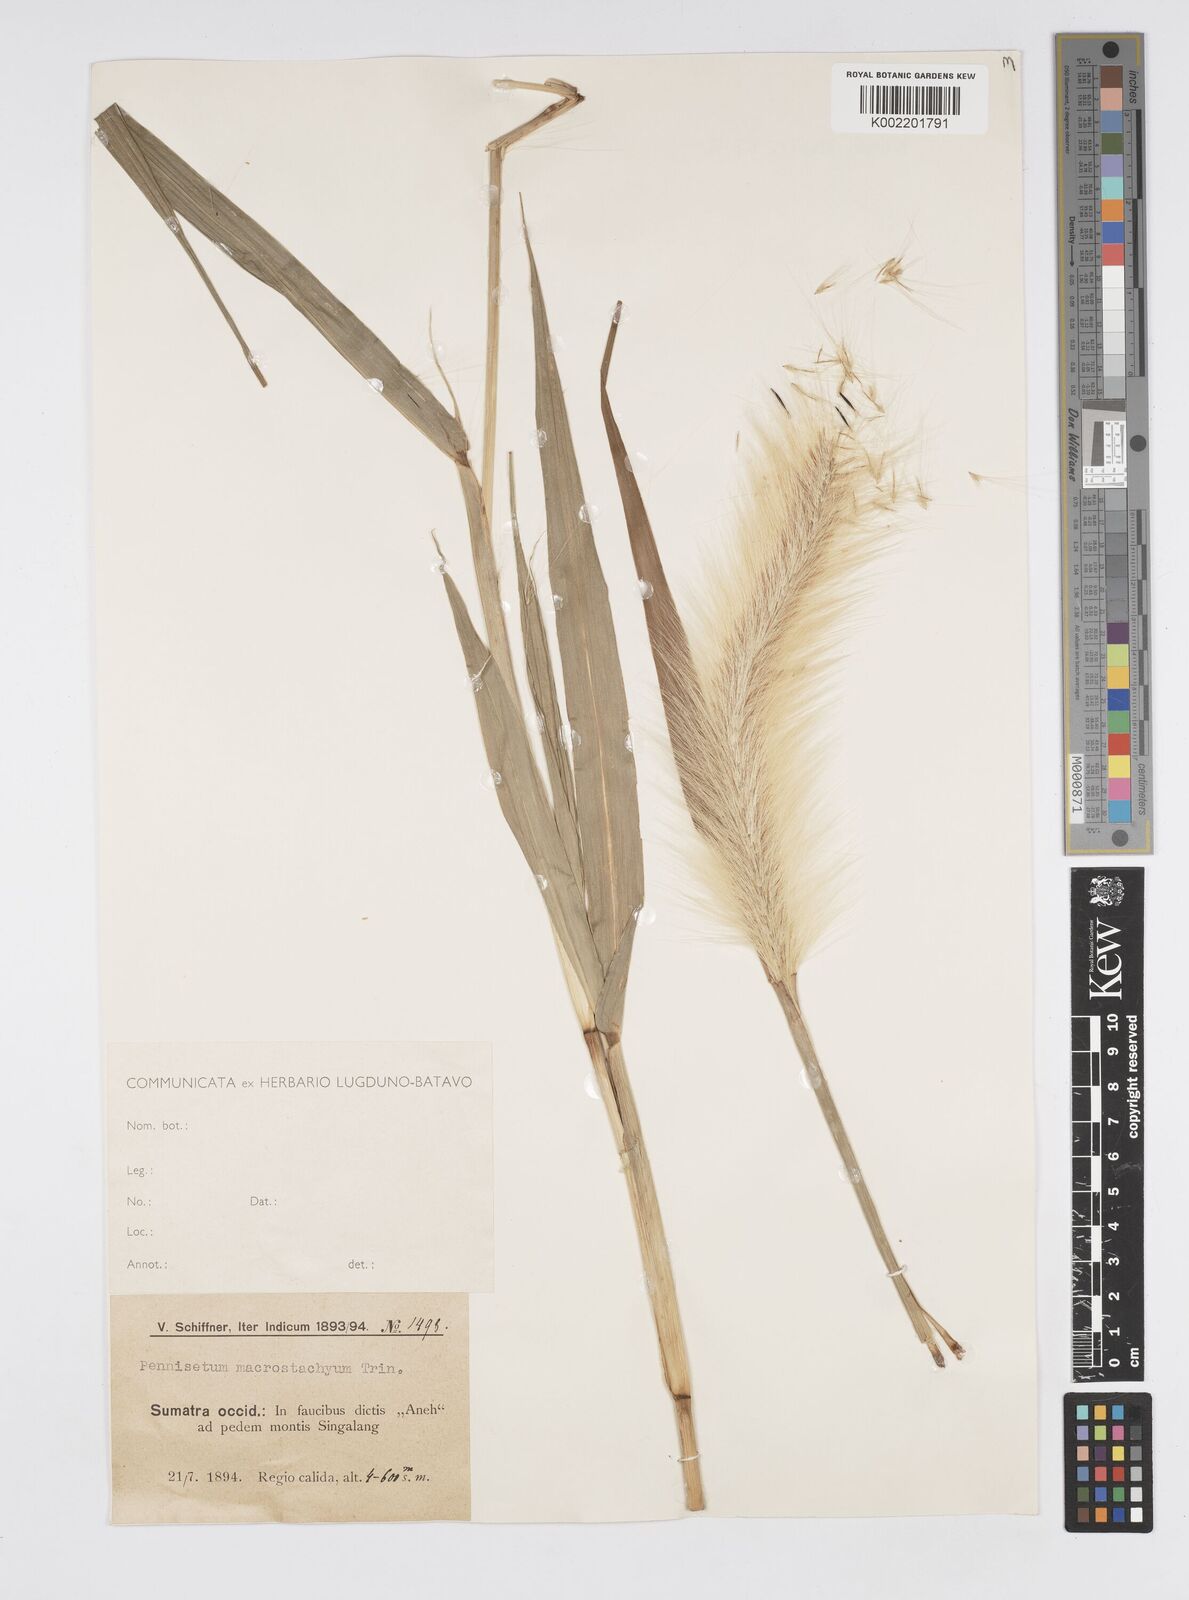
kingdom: Plantae
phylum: Tracheophyta
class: Liliopsida
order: Poales
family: Poaceae
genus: Cenchrus
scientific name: Cenchrus purpureus
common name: Elephant grass
